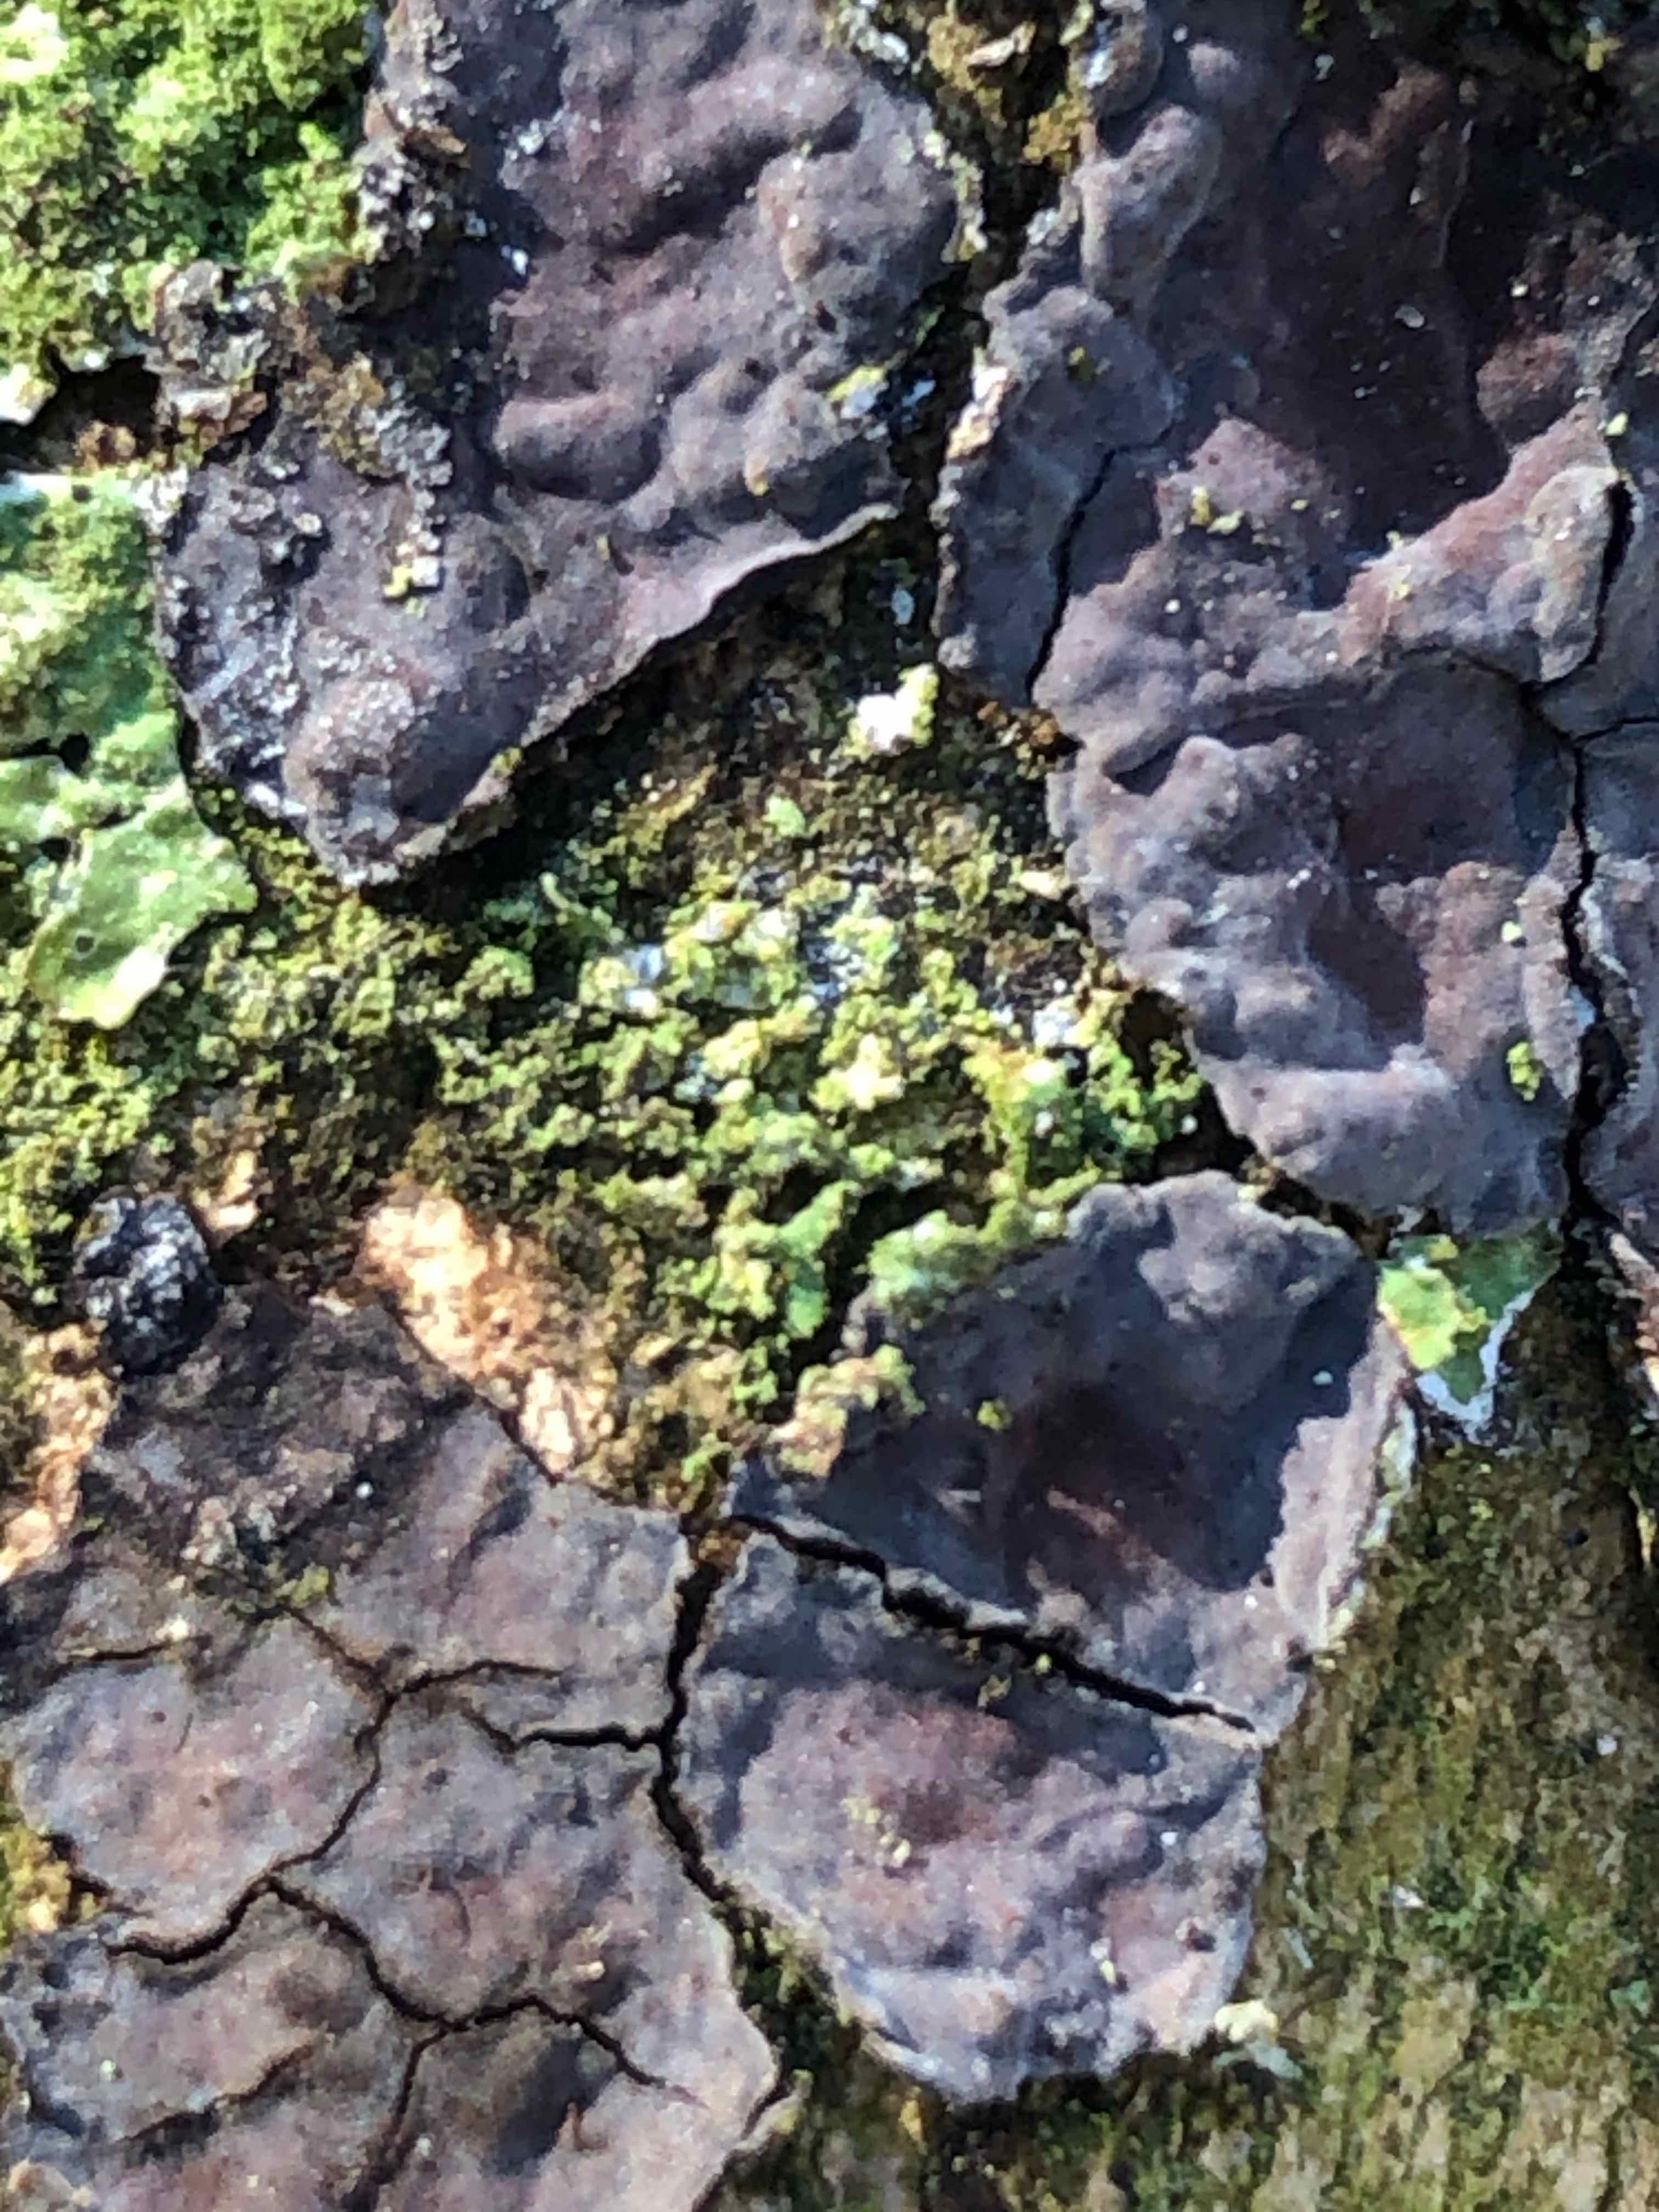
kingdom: Fungi
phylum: Basidiomycota
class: Agaricomycetes
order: Russulales
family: Peniophoraceae
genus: Peniophora
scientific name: Peniophora limitata
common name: mørkrandet voksskind
